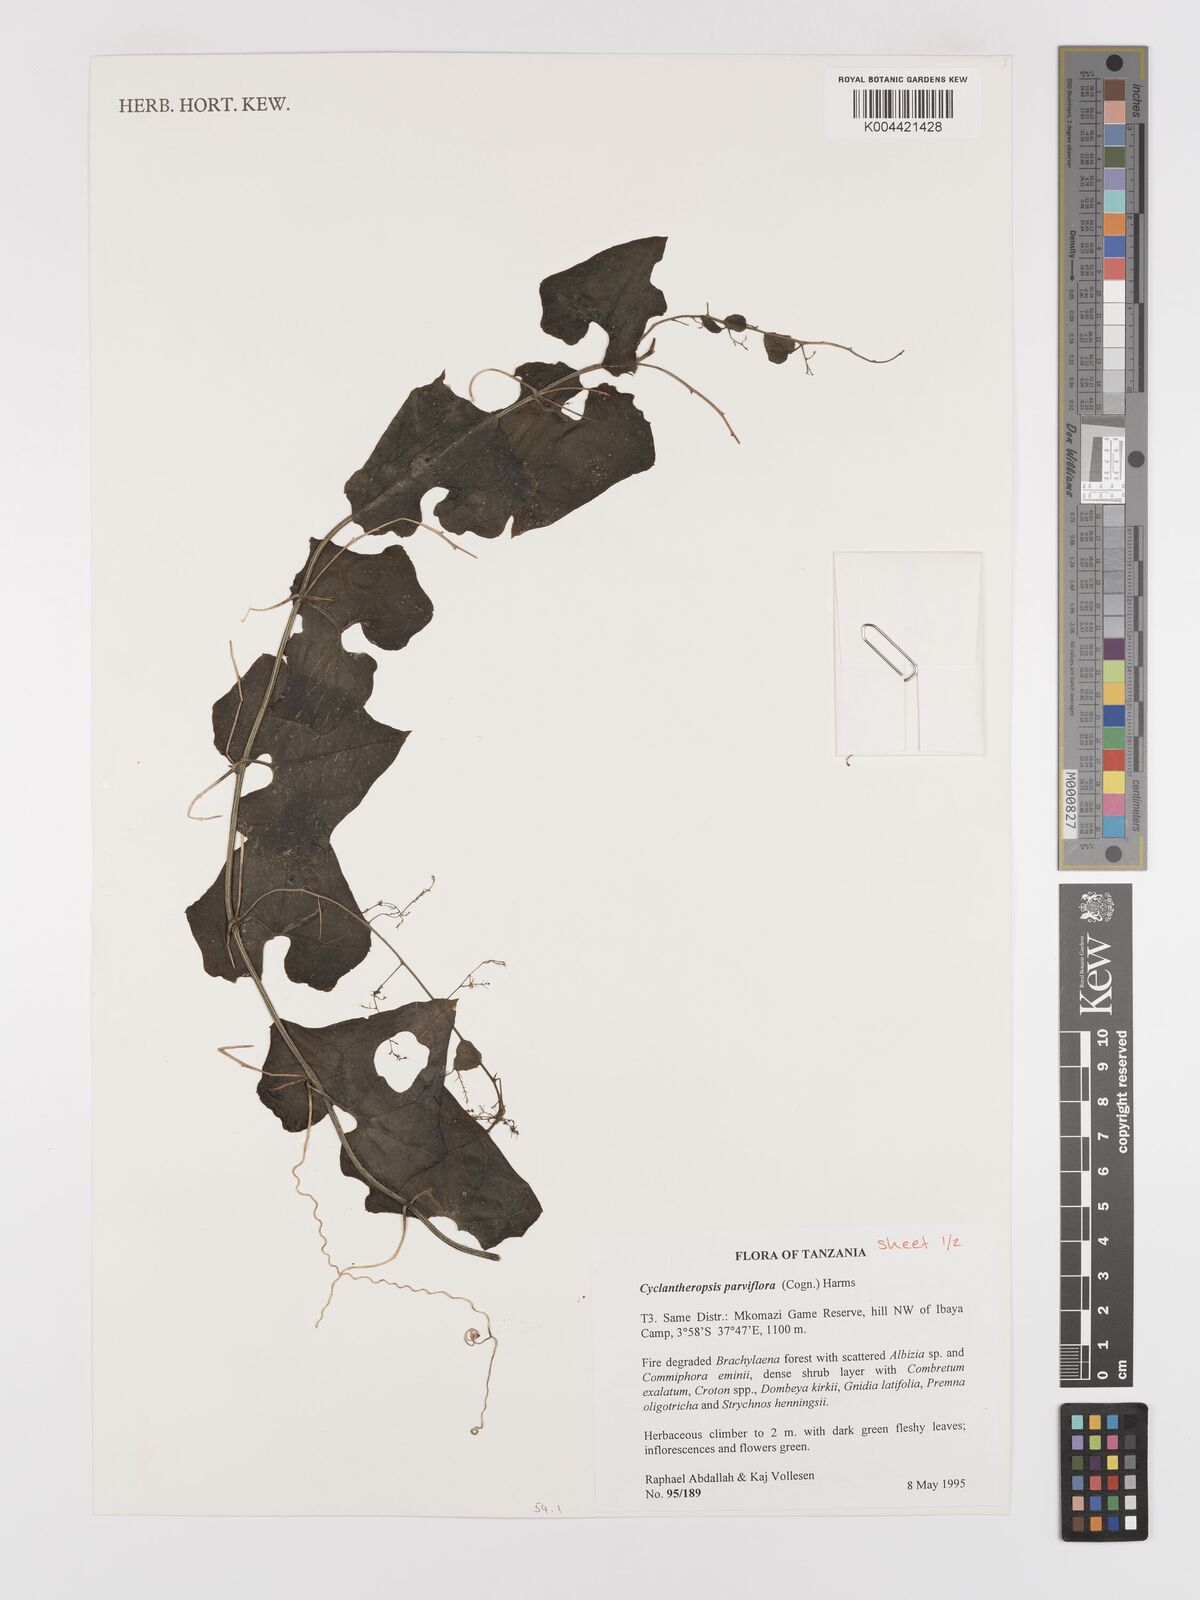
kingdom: Plantae
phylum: Tracheophyta
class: Magnoliopsida
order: Cucurbitales
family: Cucurbitaceae
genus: Cyclantheropsis
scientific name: Cyclantheropsis parviflora
